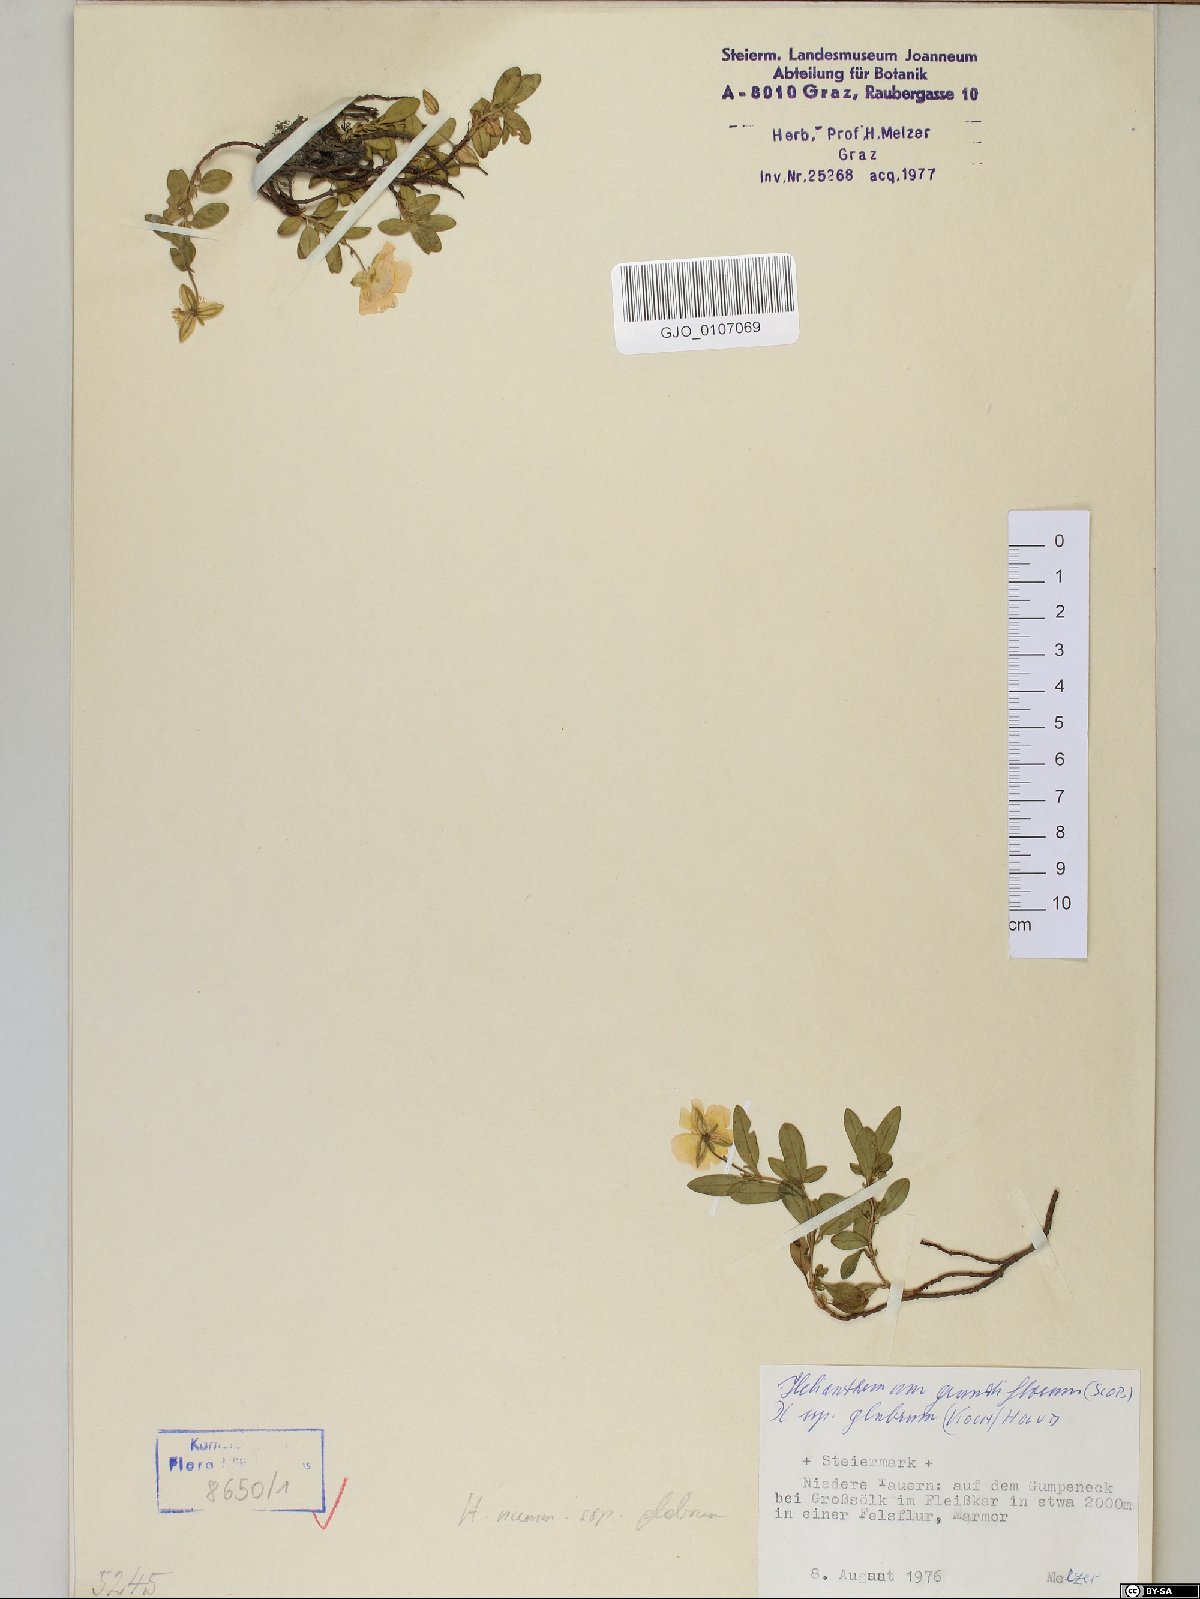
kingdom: Plantae
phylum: Tracheophyta
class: Magnoliopsida
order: Malvales
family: Cistaceae
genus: Helianthemum
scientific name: Helianthemum nummularium
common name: Common rock-rose
